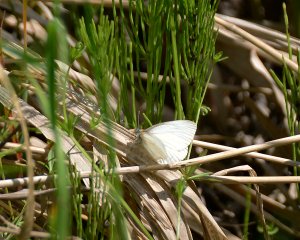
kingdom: Animalia
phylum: Arthropoda
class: Insecta
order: Lepidoptera
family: Pieridae
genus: Pieris
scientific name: Pieris oleracea
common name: Mustard White
